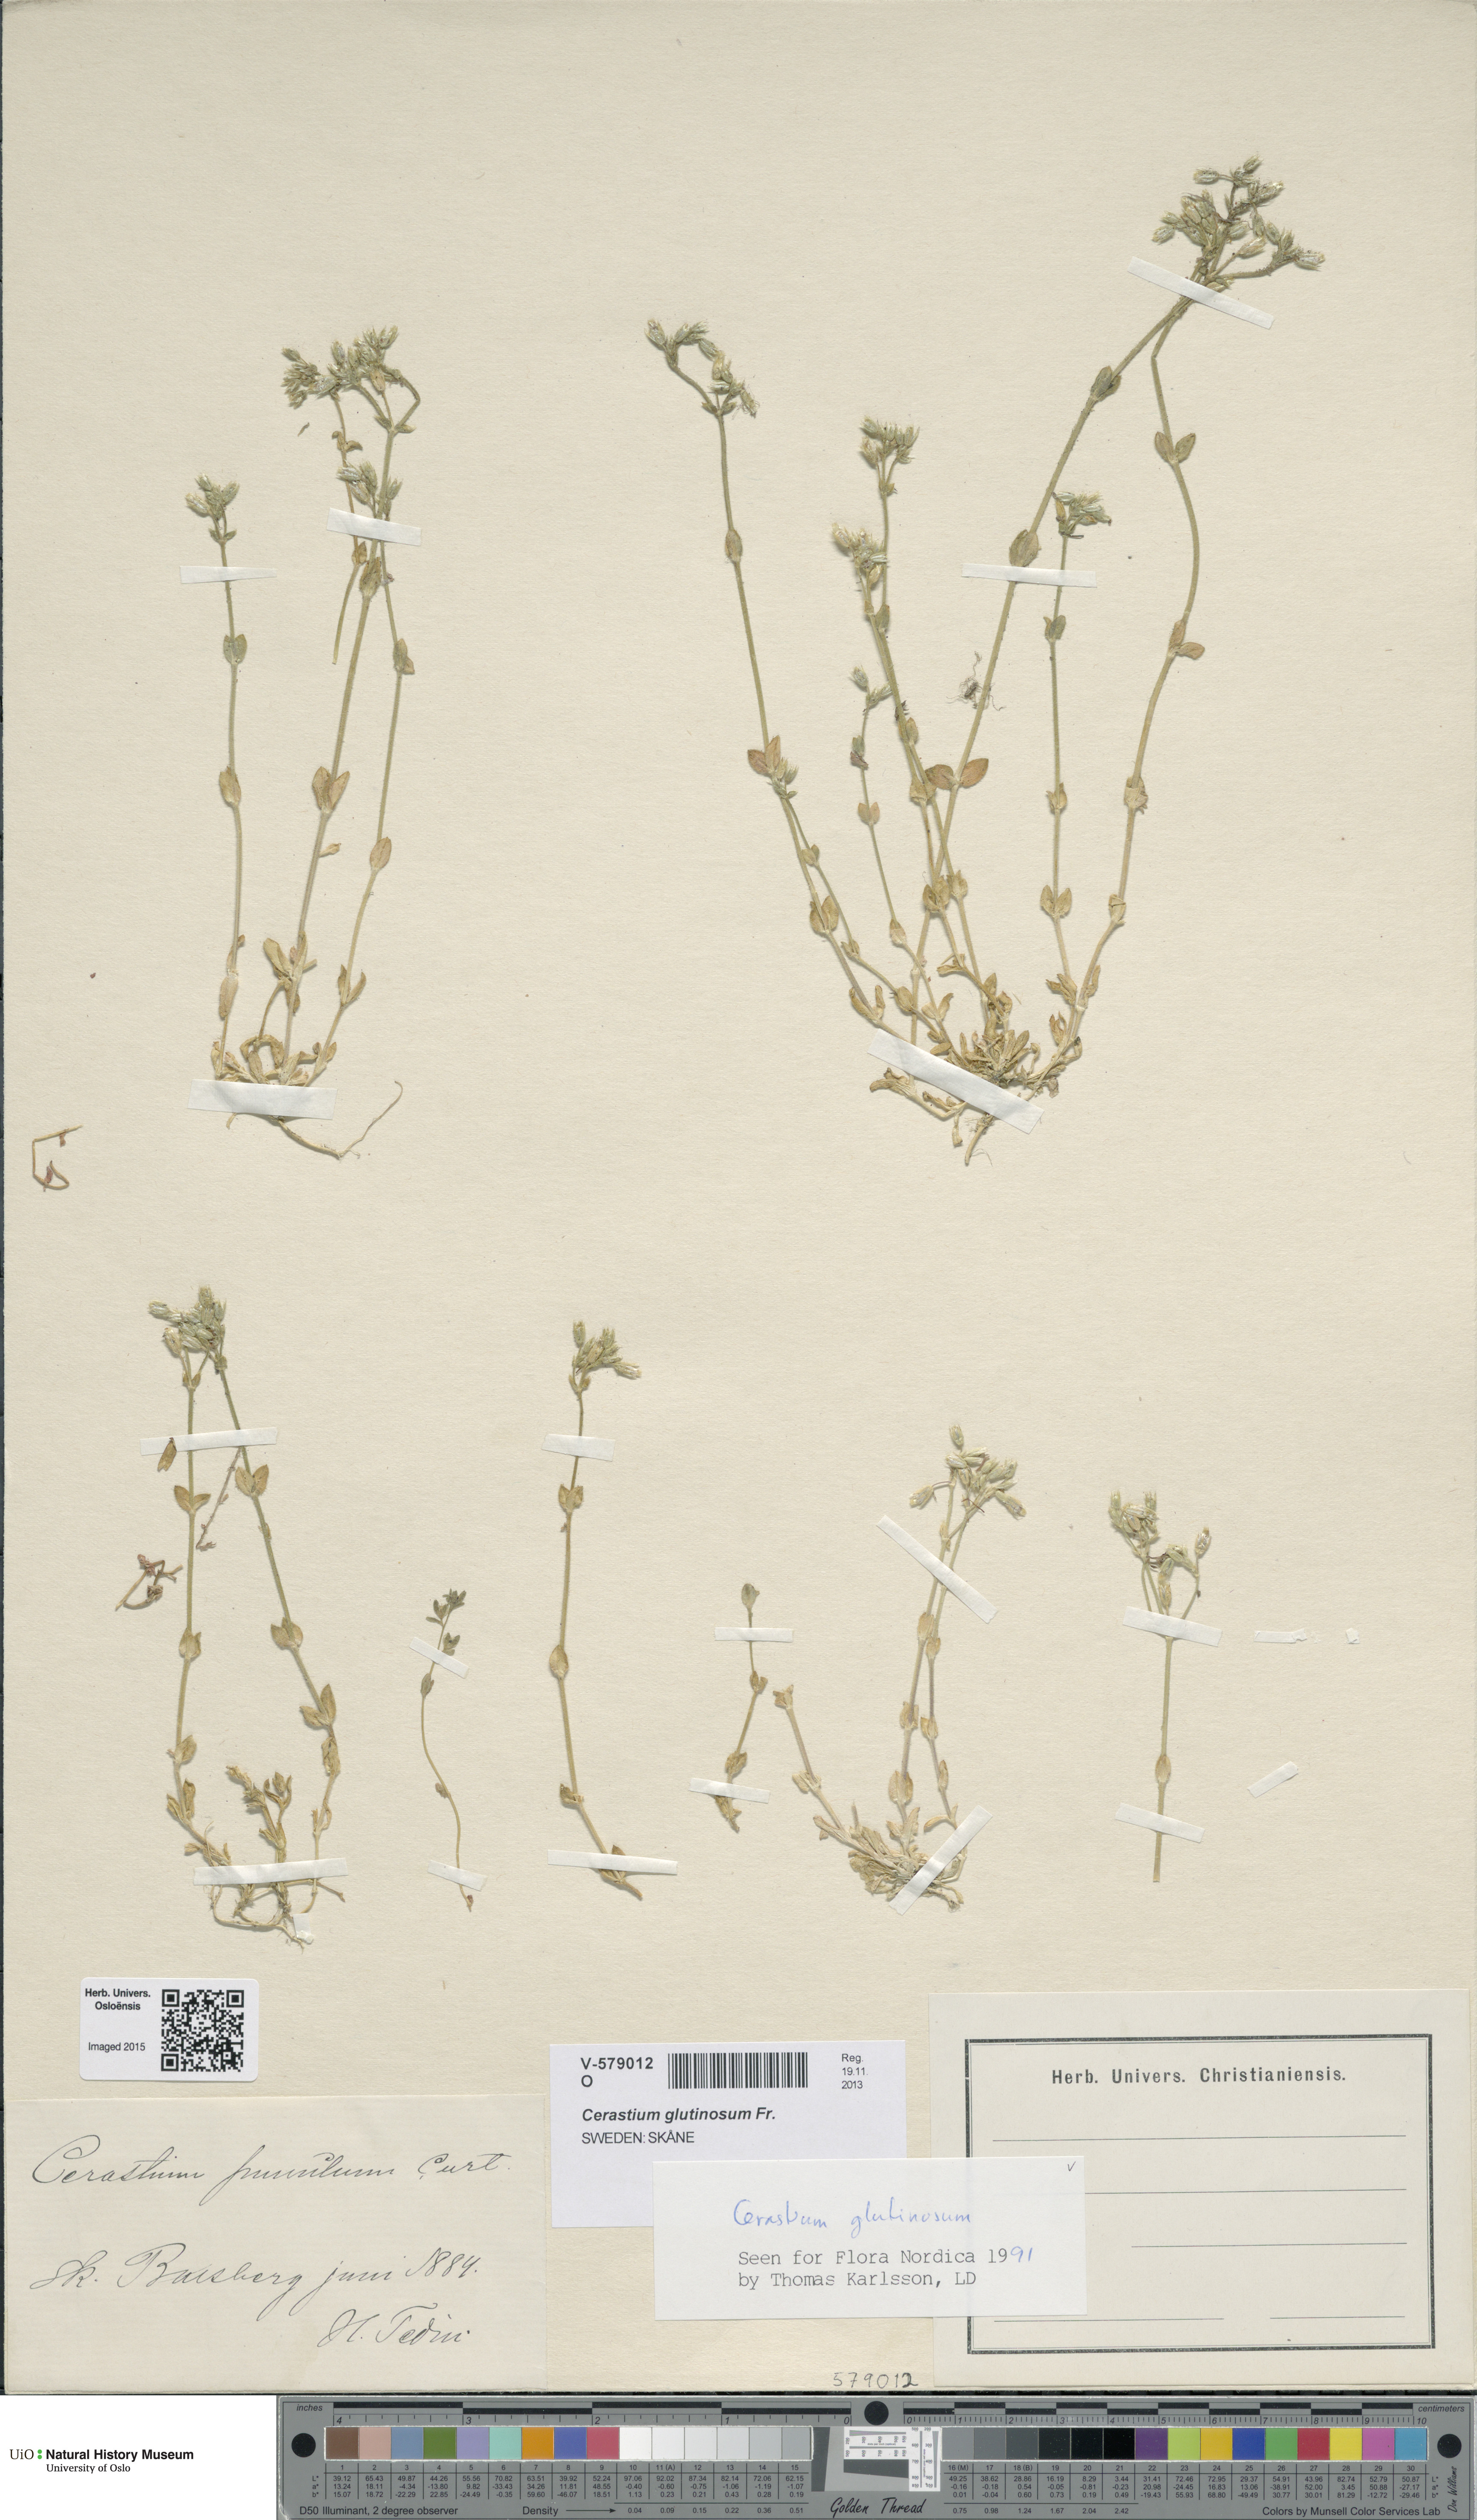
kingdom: Plantae
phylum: Tracheophyta
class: Magnoliopsida
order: Caryophyllales
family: Caryophyllaceae
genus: Cerastium
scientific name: Cerastium glutinosum
